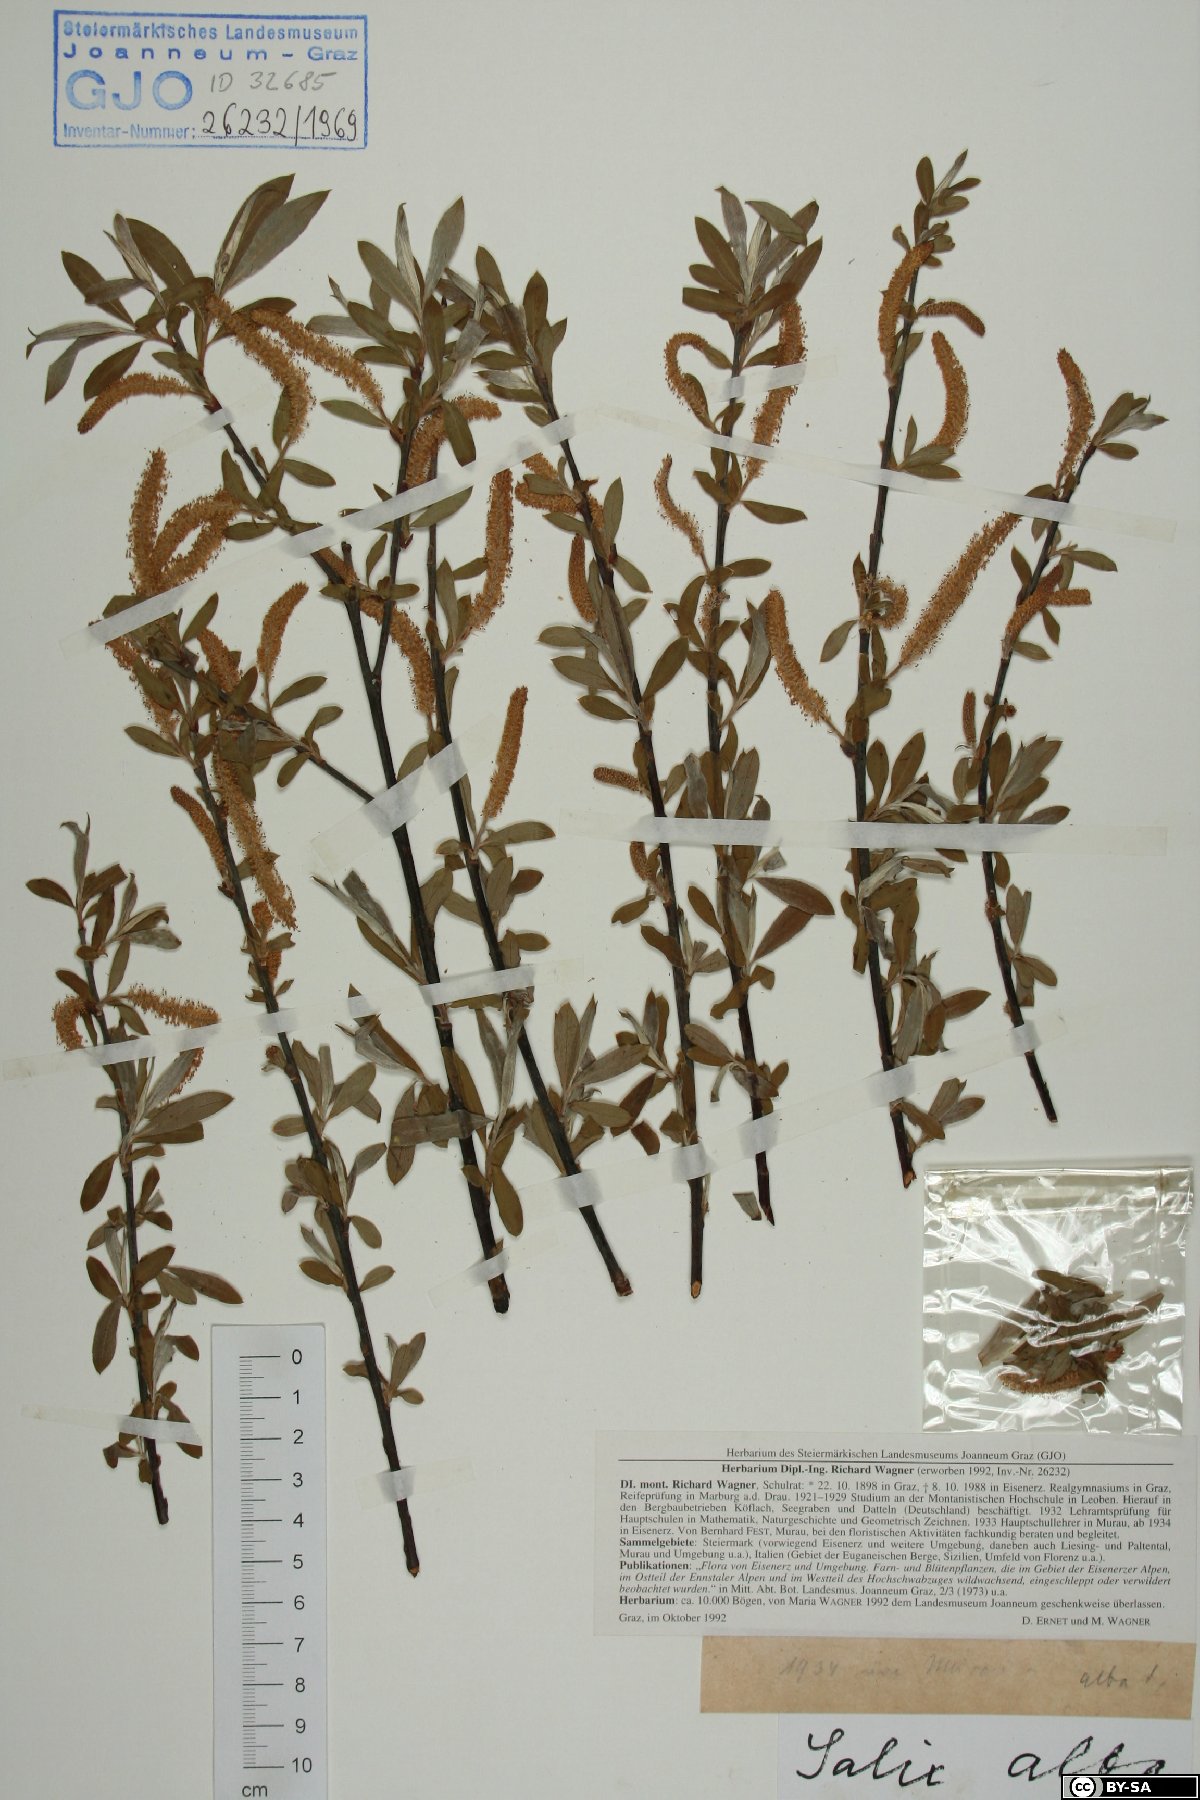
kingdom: Plantae
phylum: Tracheophyta
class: Magnoliopsida
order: Malpighiales
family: Salicaceae
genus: Salix
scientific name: Salix alba
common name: White willow
